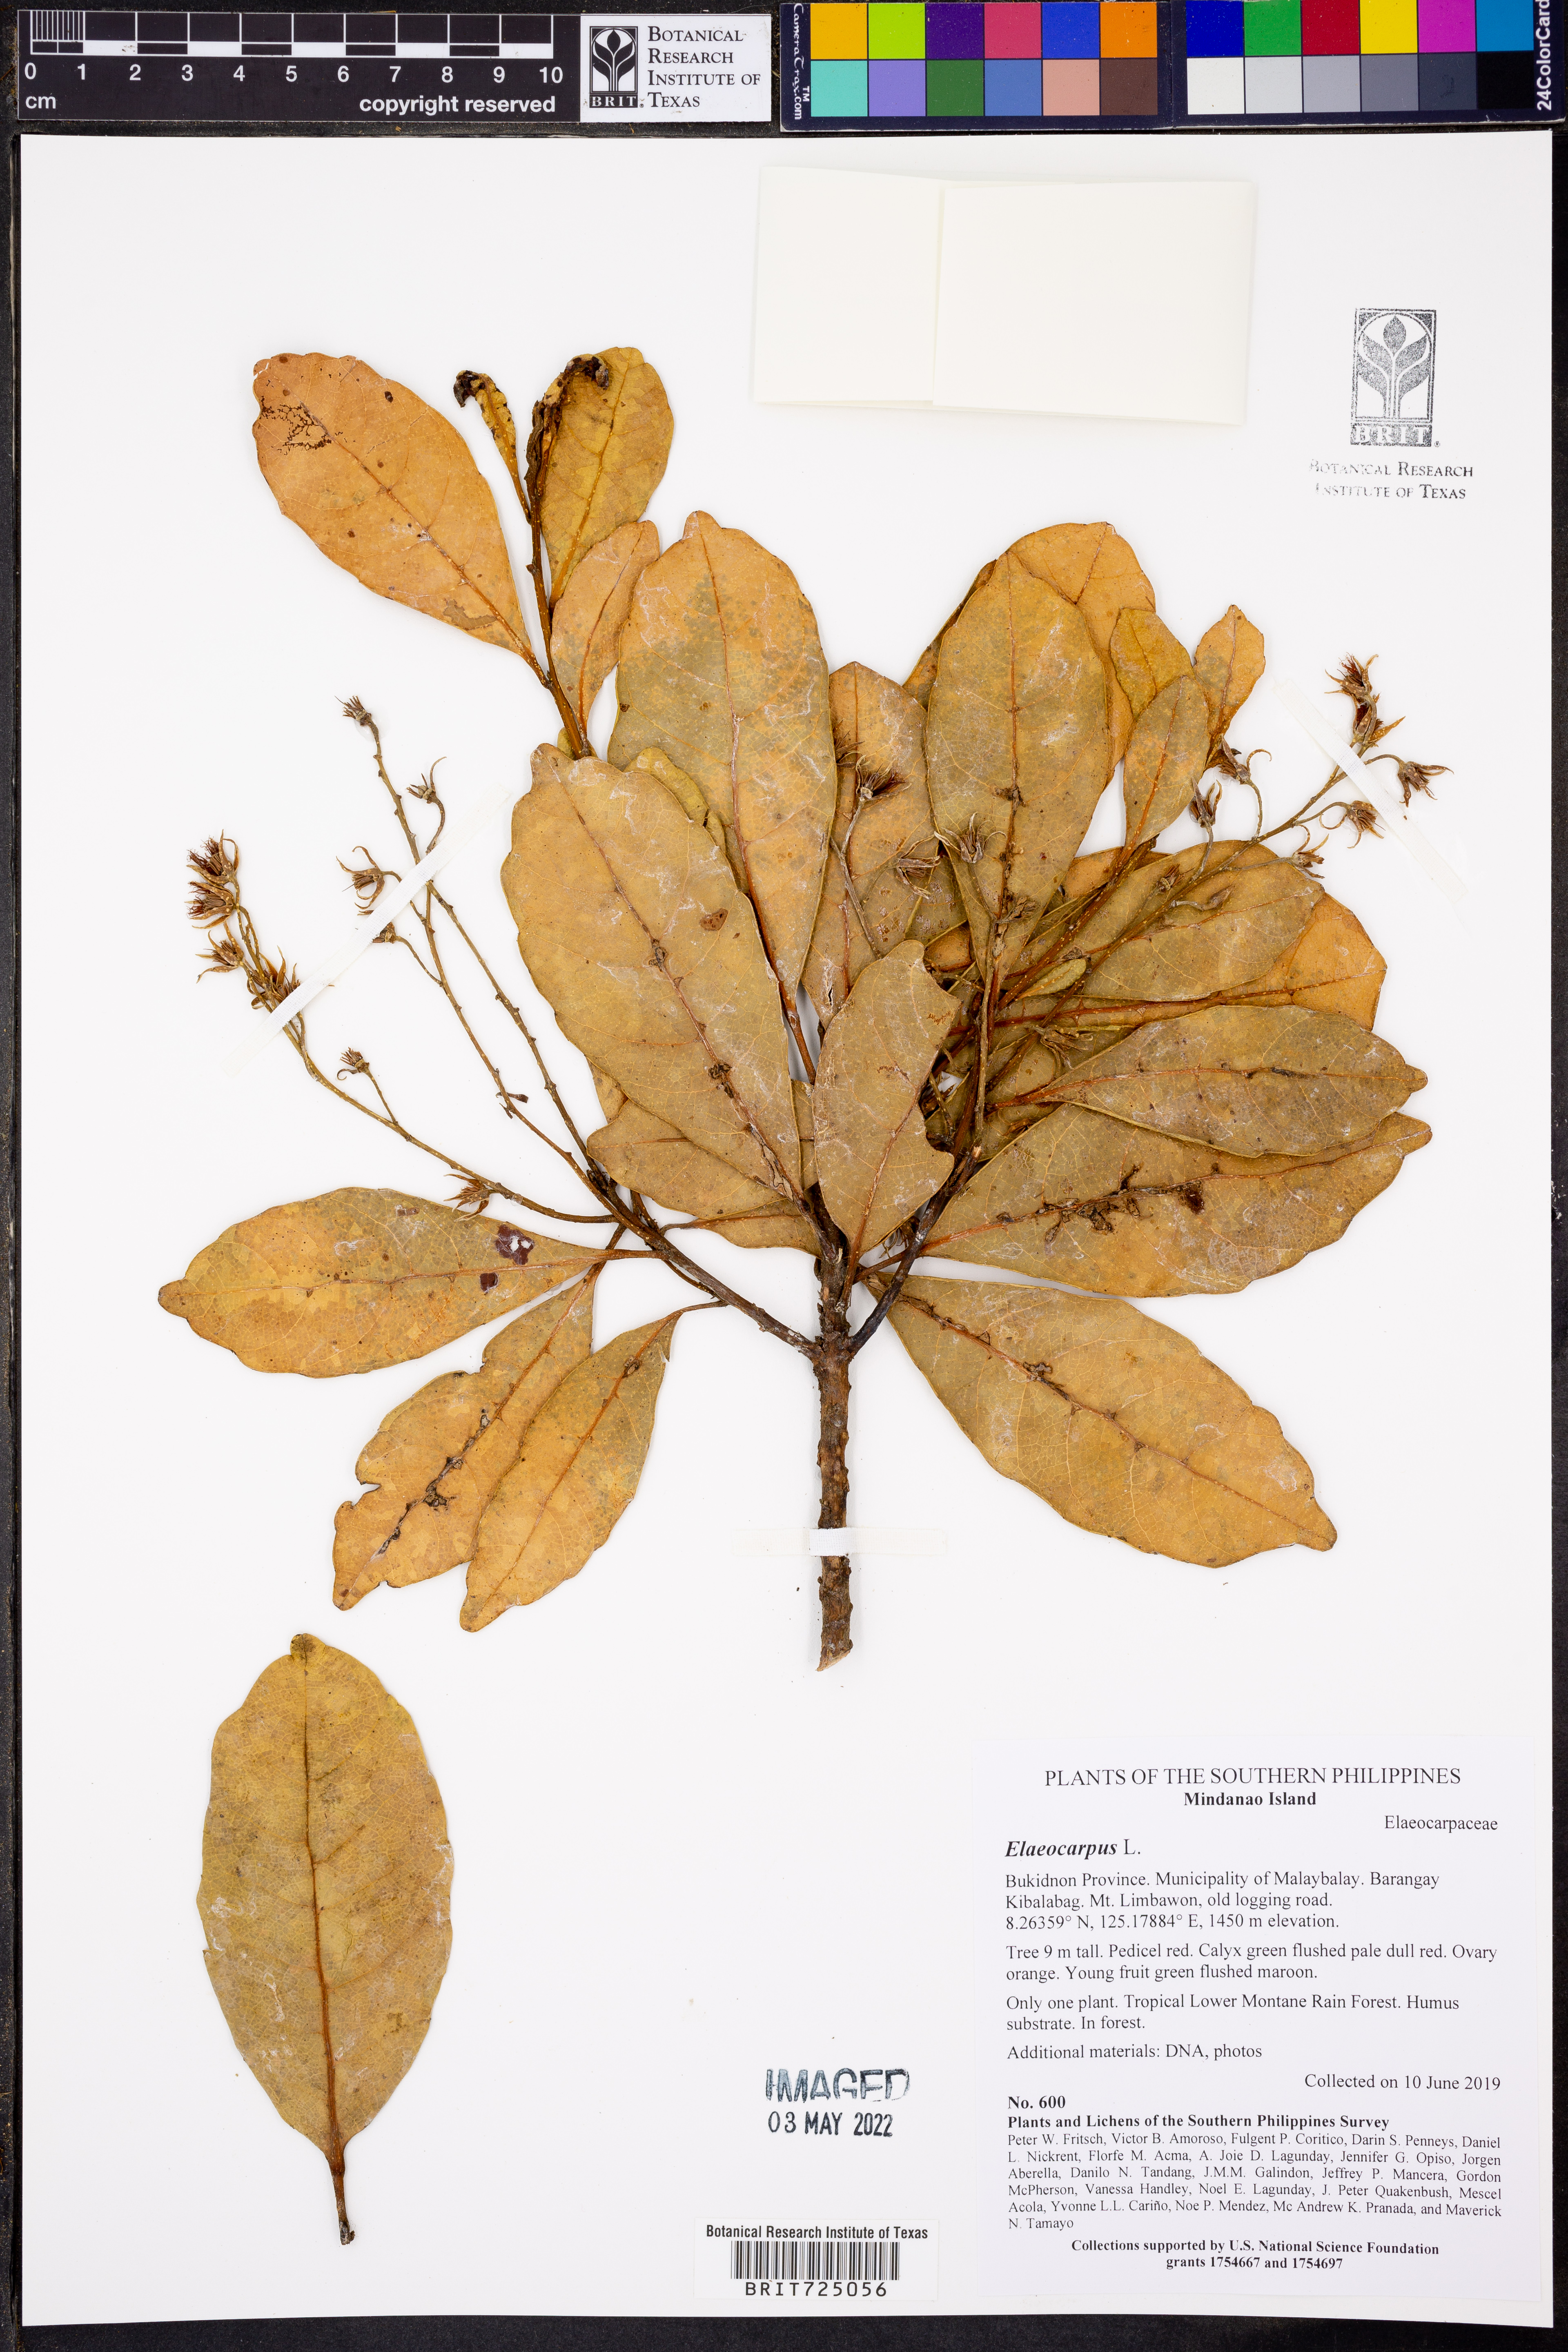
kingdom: Plantae
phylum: Tracheophyta
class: Magnoliopsida
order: Oxalidales
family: Elaeocarpaceae
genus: Elaeocarpus
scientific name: Elaeocarpus
